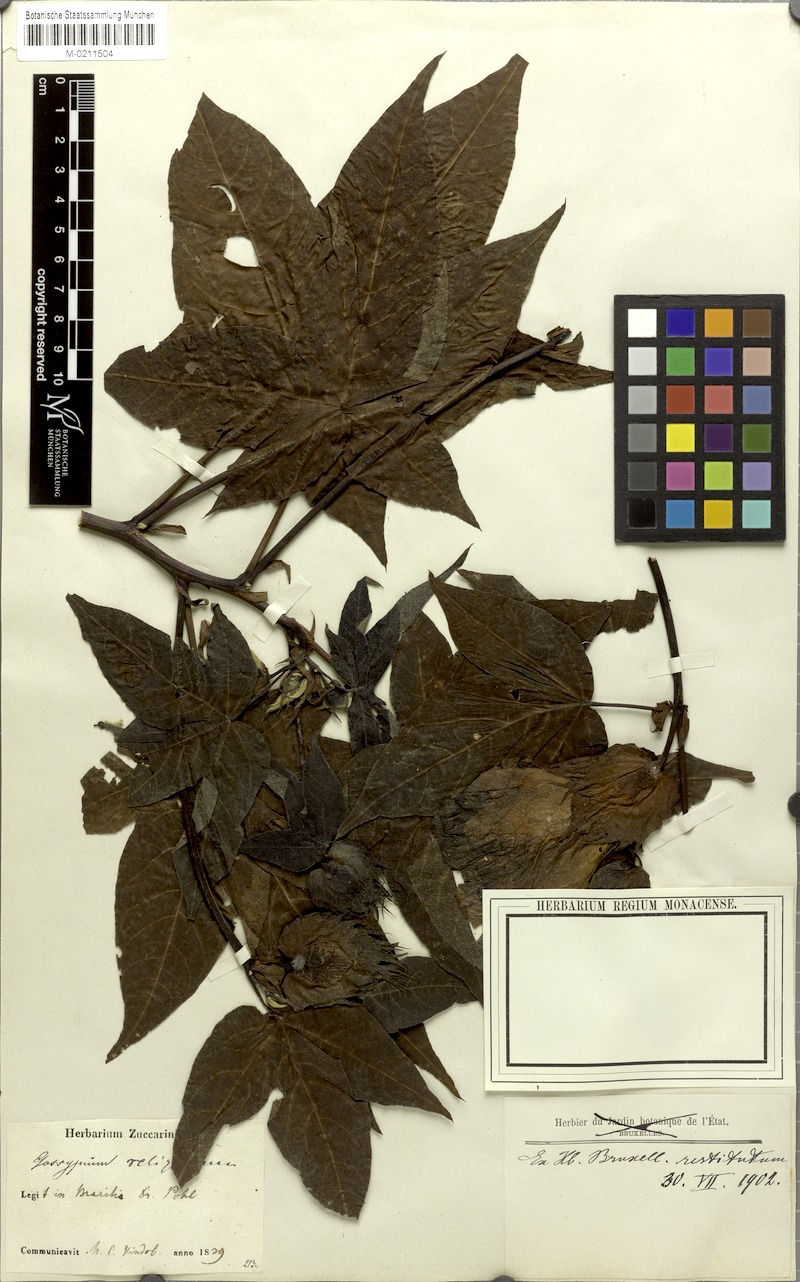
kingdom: Plantae
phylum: Tracheophyta
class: Magnoliopsida
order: Malvales
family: Malvaceae
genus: Gossypium
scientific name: Gossypium hirsutum
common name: Cotton
